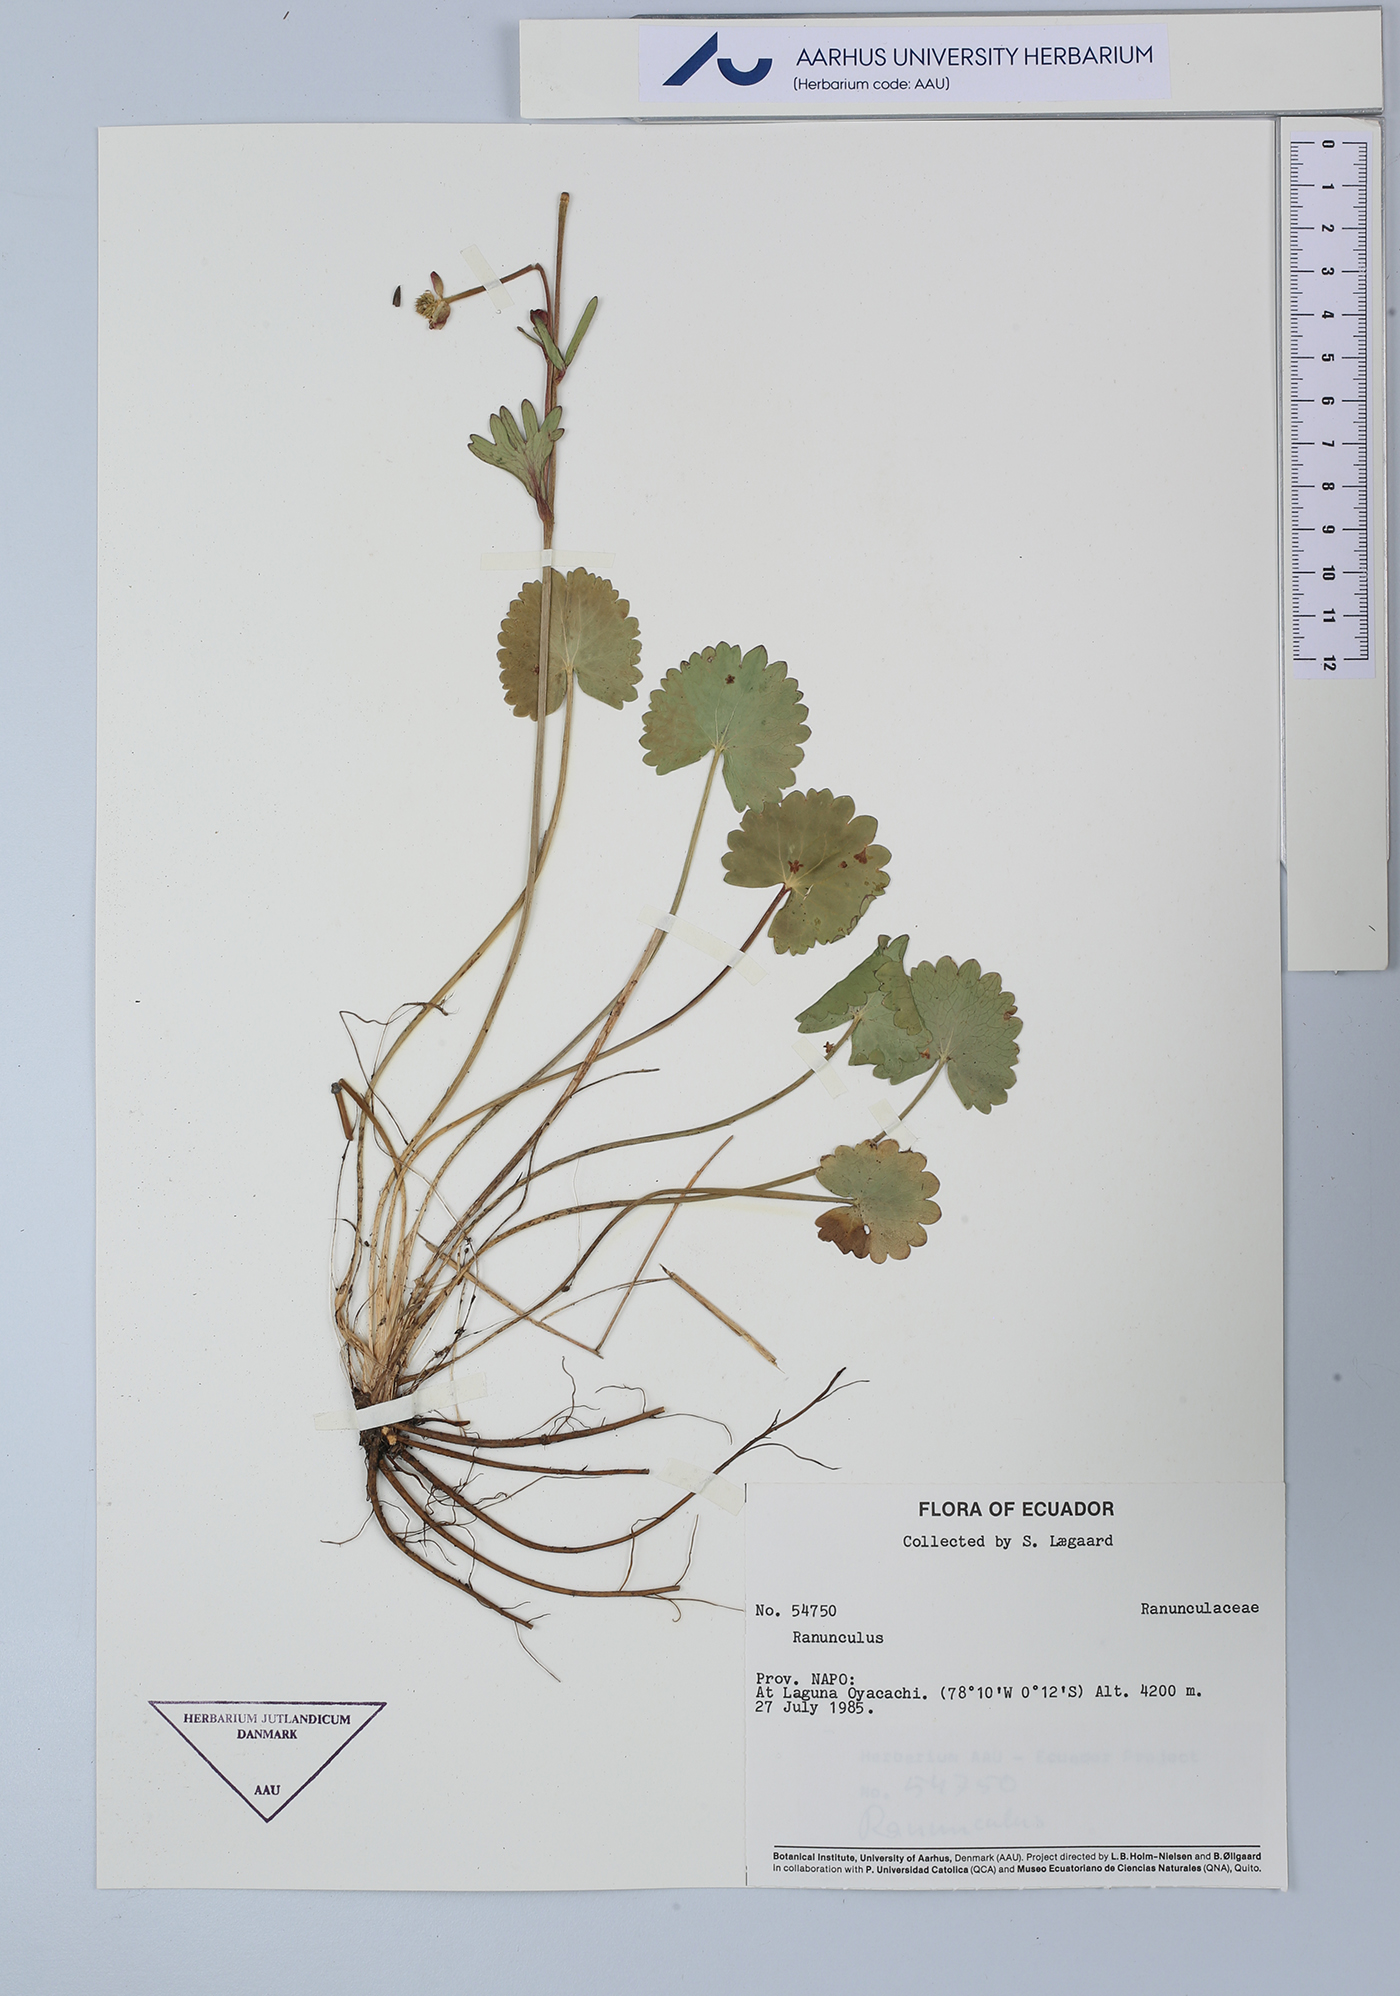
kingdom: Plantae
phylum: Tracheophyta
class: Magnoliopsida
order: Ranunculales
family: Ranunculaceae
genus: Ranunculus
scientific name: Ranunculus
